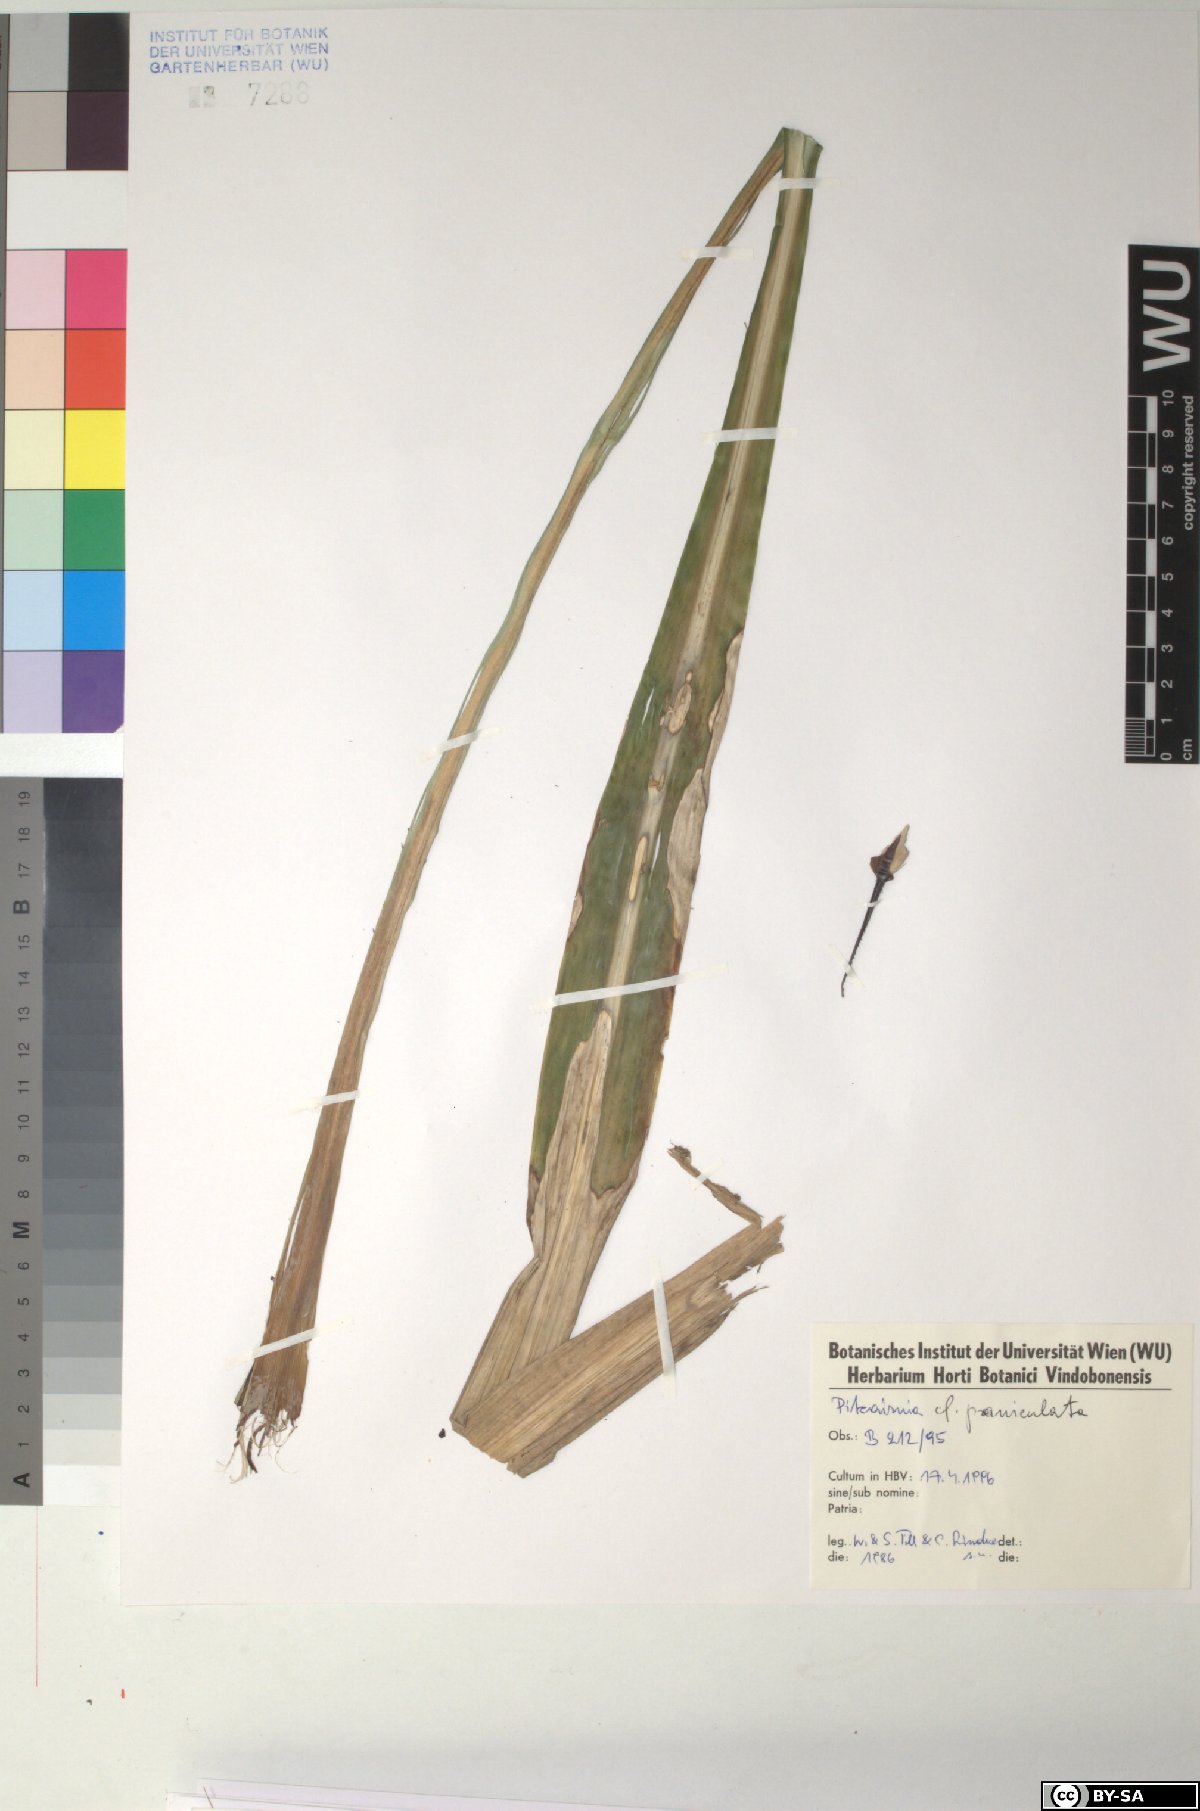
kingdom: Plantae
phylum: Tracheophyta
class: Liliopsida
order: Poales
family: Bromeliaceae
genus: Pitcairnia
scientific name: Pitcairnia paniculata
